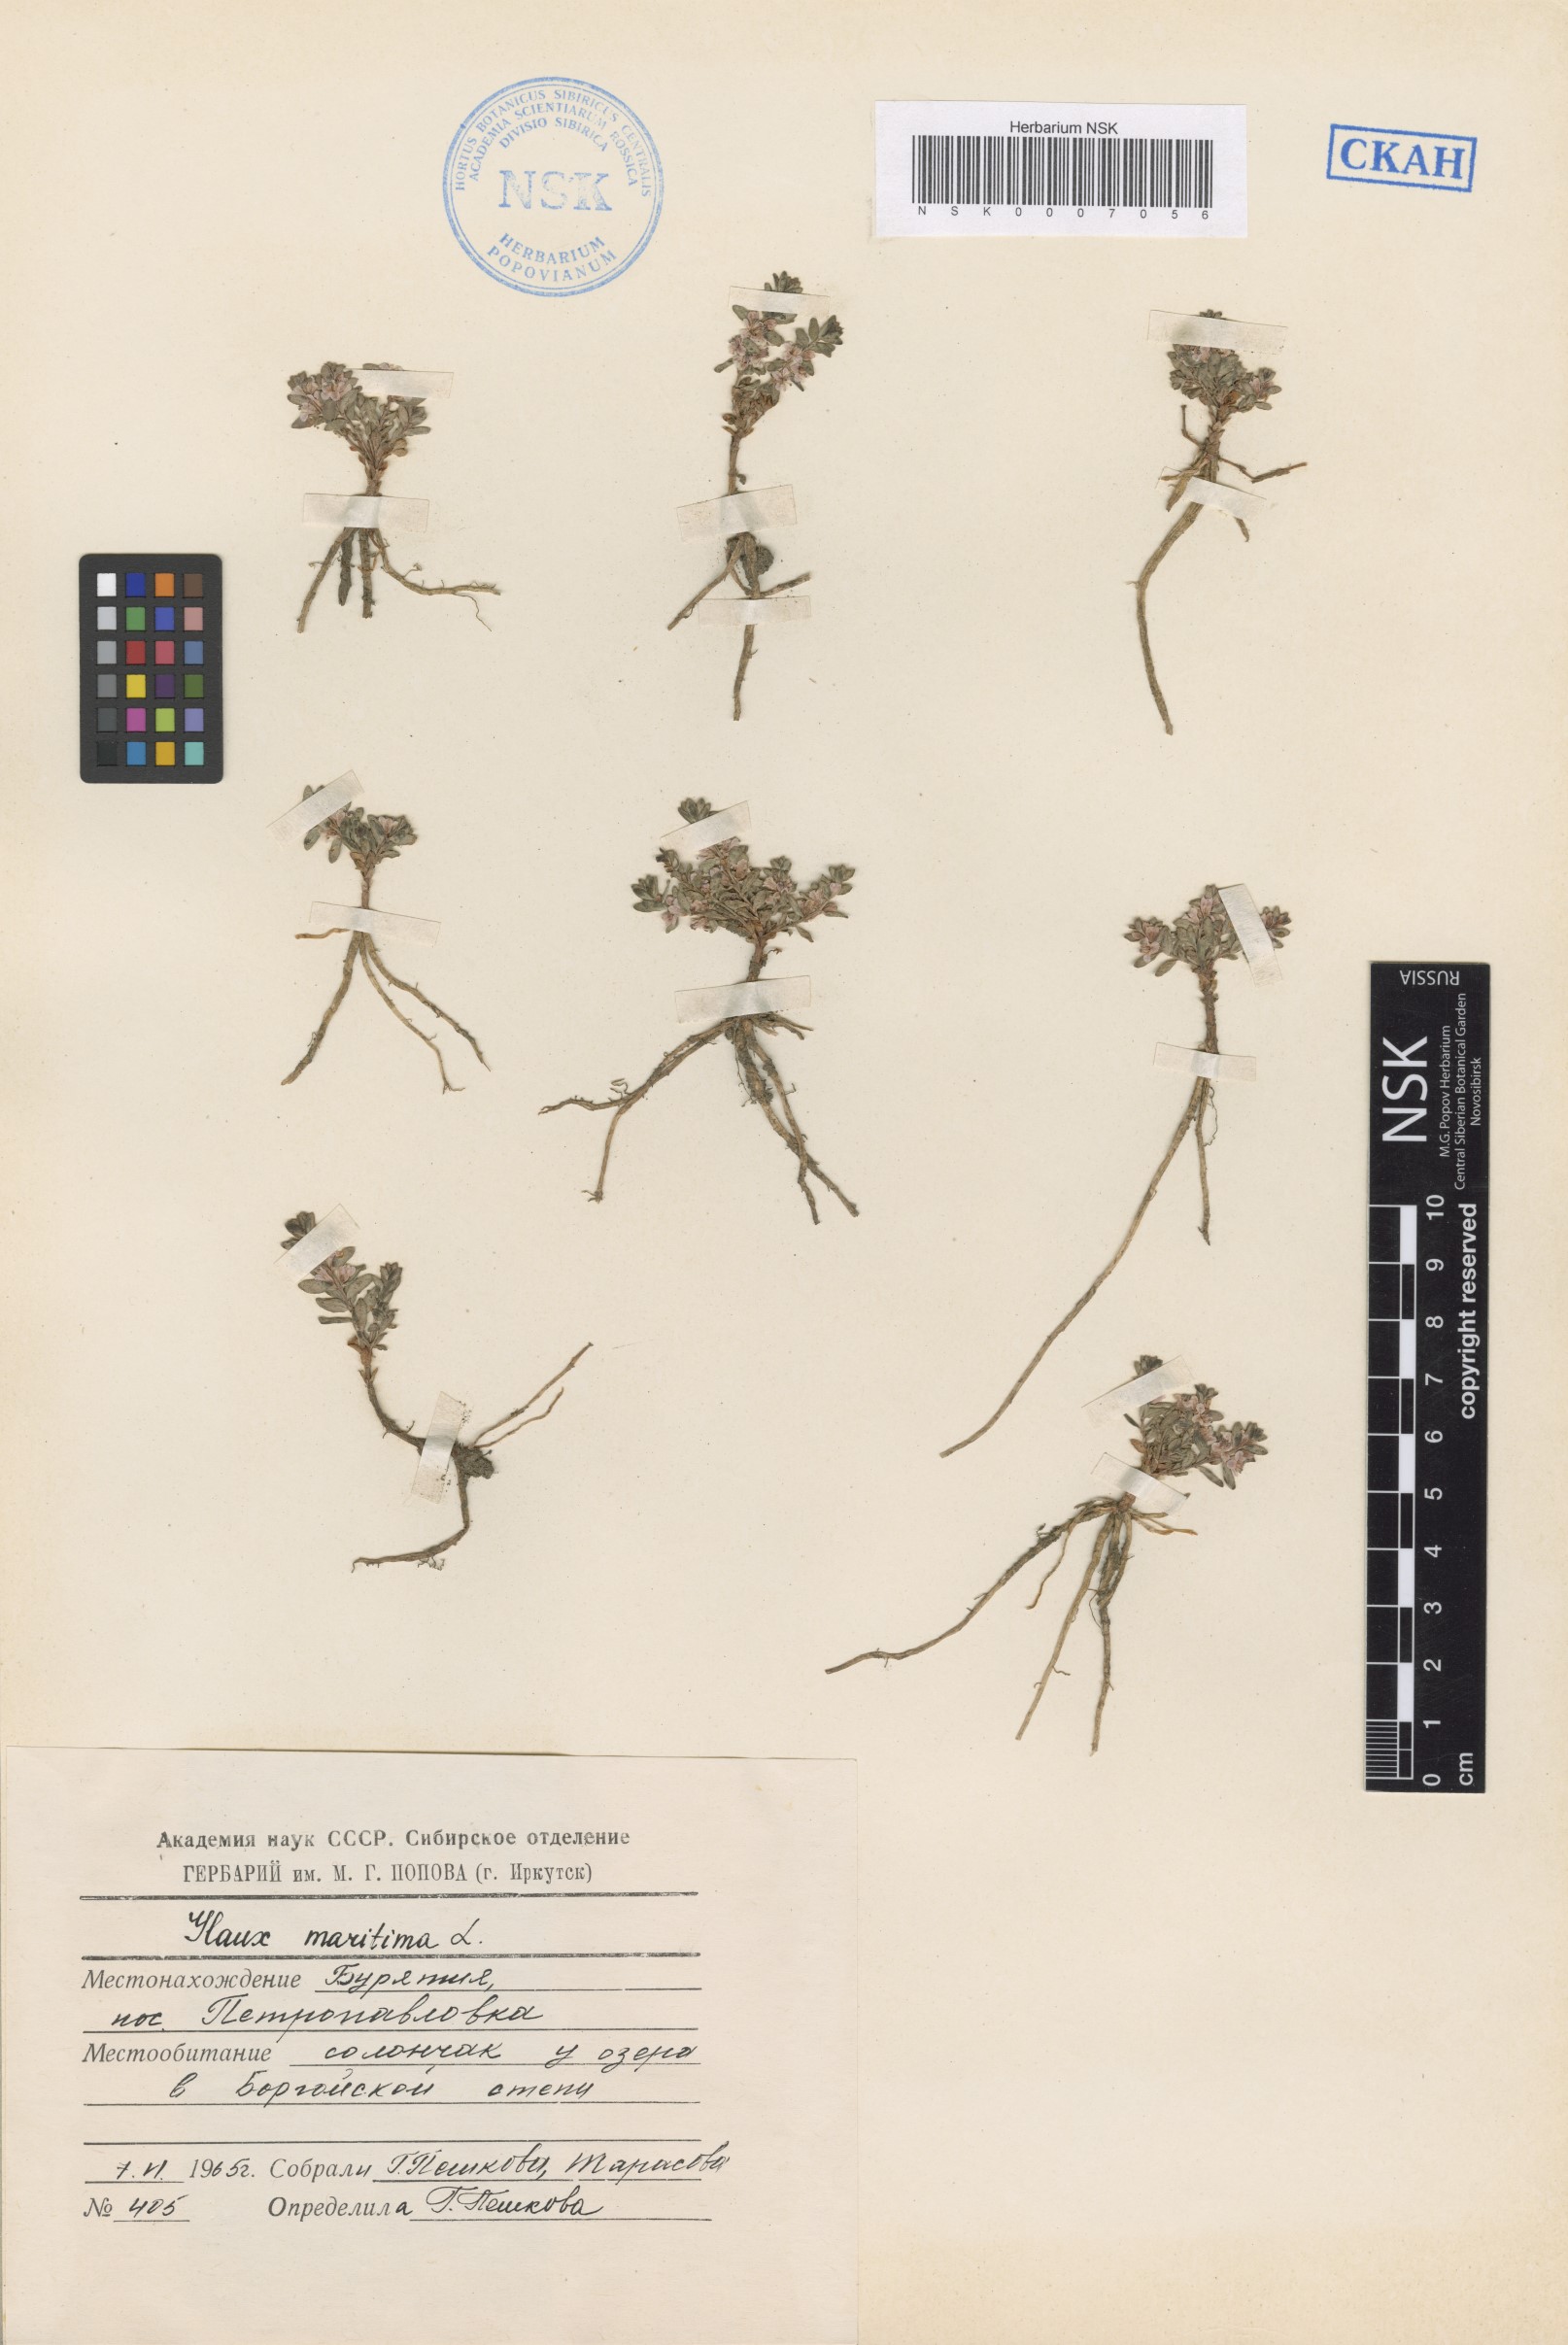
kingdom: Plantae
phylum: Tracheophyta
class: Magnoliopsida
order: Ericales
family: Primulaceae
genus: Lysimachia
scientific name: Lysimachia maritima
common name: Sea milkwort
